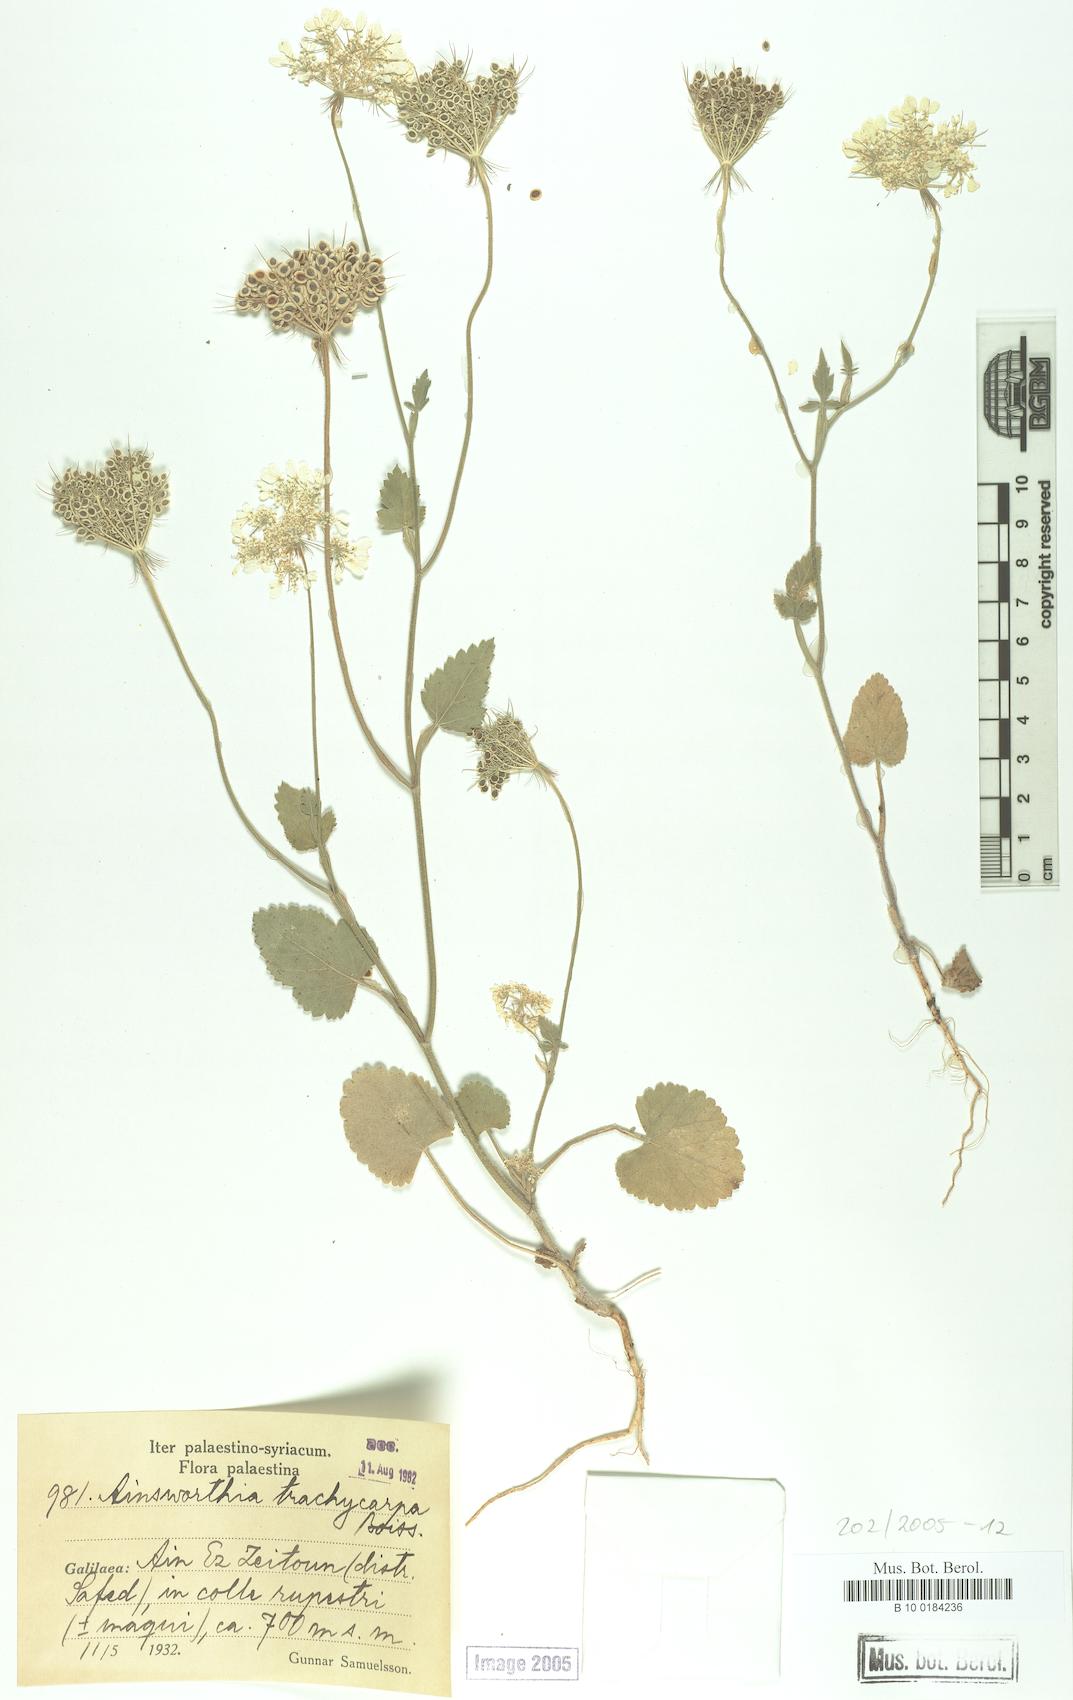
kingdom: Plantae
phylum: Tracheophyta
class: Magnoliopsida
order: Apiales
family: Apiaceae
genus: Ainsworthia
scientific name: Ainsworthia trachycarpa
